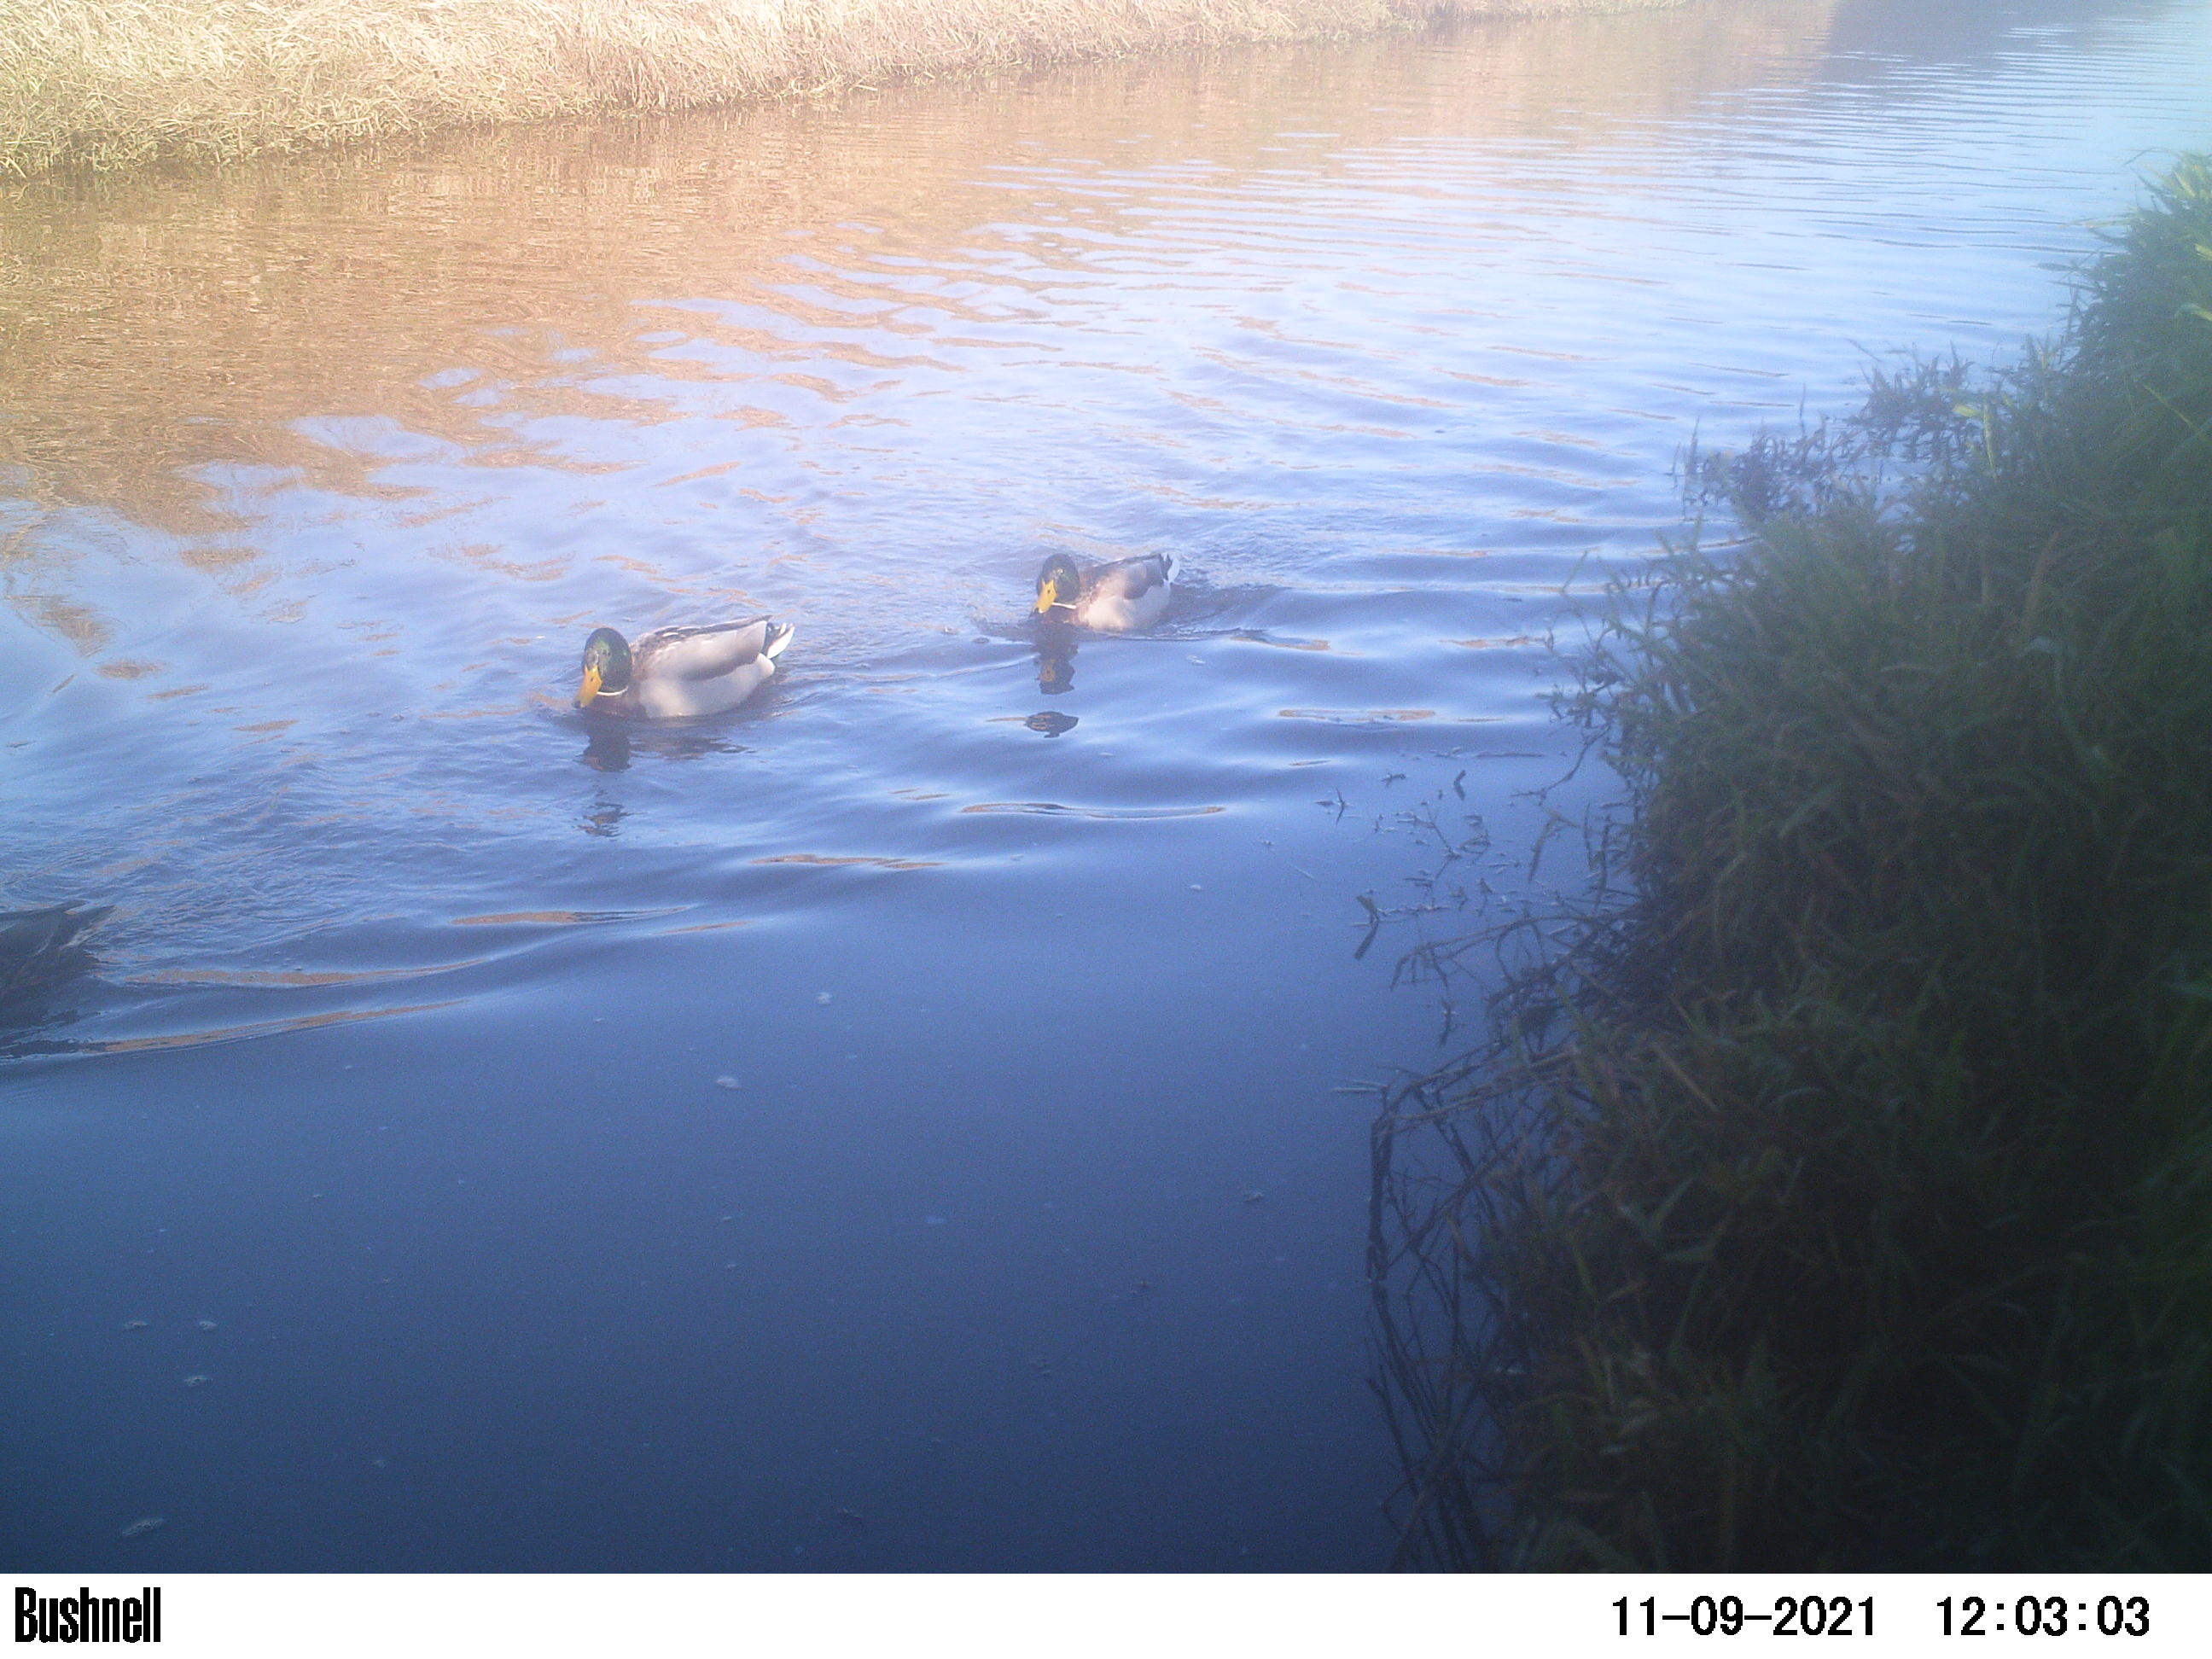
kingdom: Animalia
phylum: Chordata
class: Aves
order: Anseriformes
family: Anatidae
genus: Anas
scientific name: Anas
